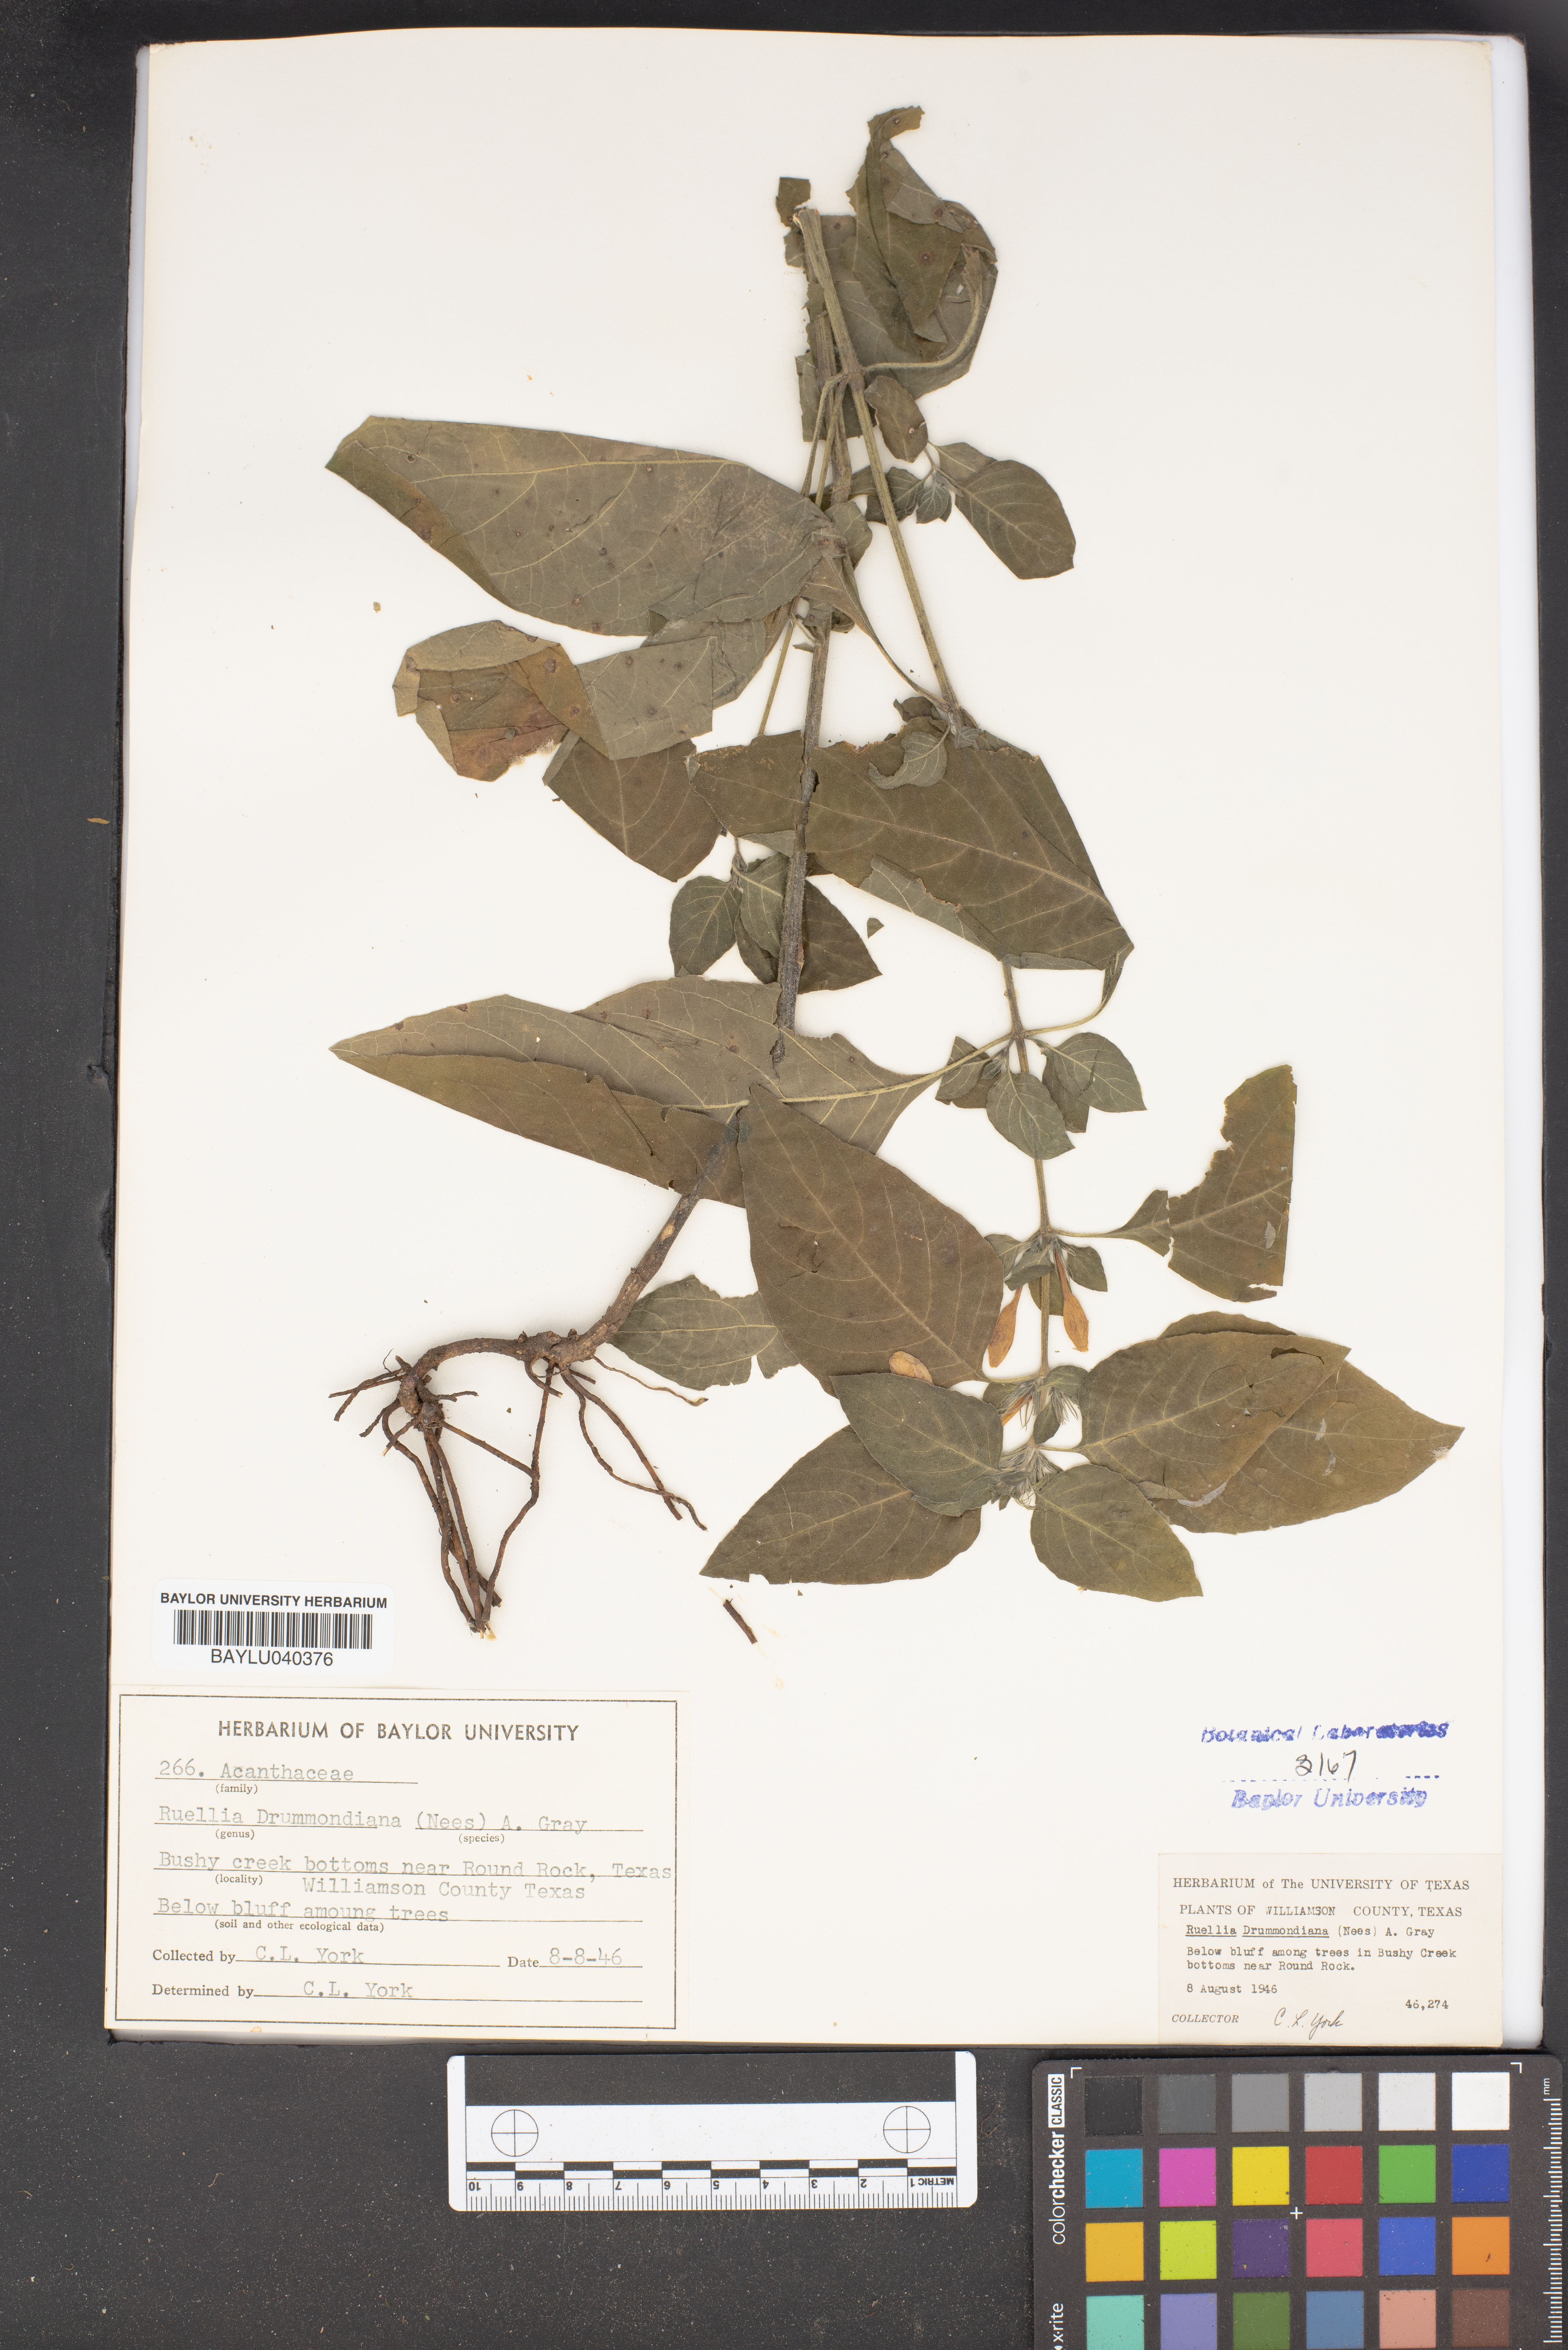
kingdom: Plantae
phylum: Tracheophyta
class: Magnoliopsida
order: Lamiales
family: Acanthaceae
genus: Ruellia
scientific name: Ruellia drummondiana
